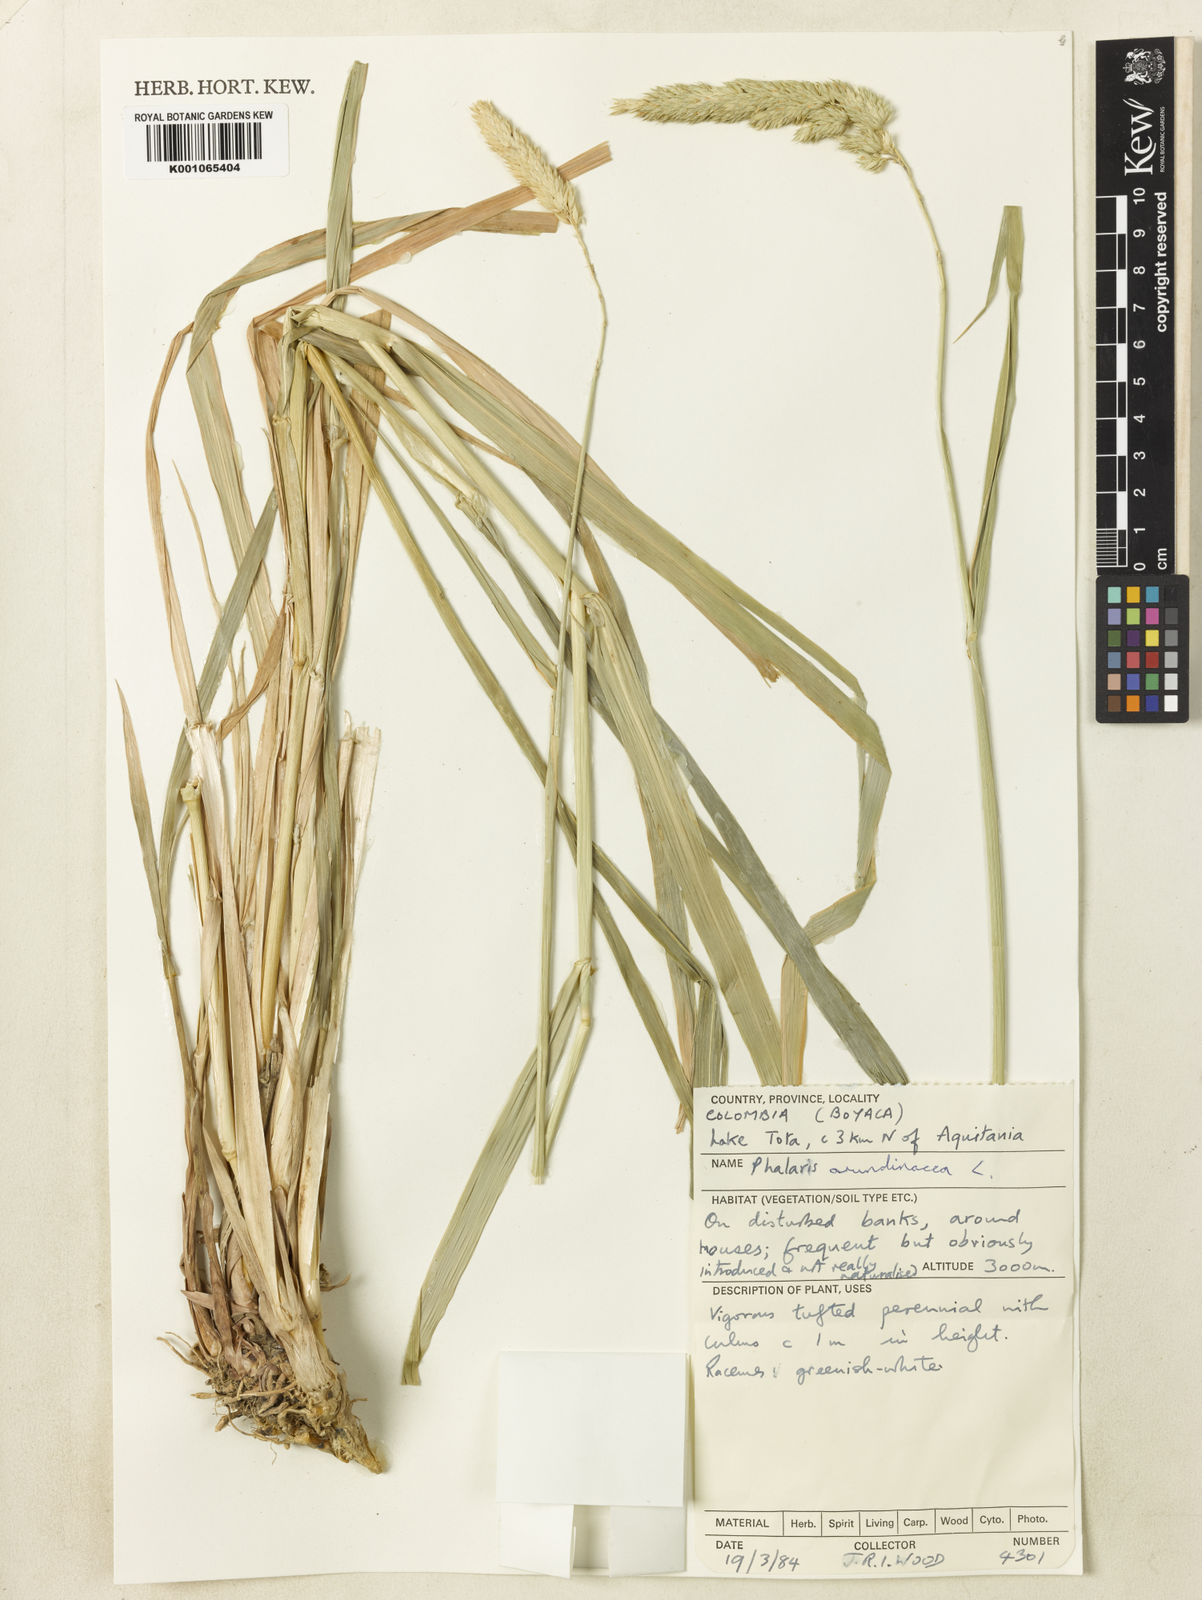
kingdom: Plantae
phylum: Tracheophyta
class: Liliopsida
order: Poales
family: Poaceae
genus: Phalaris
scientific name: Phalaris arundinacea
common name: Reed canary-grass
